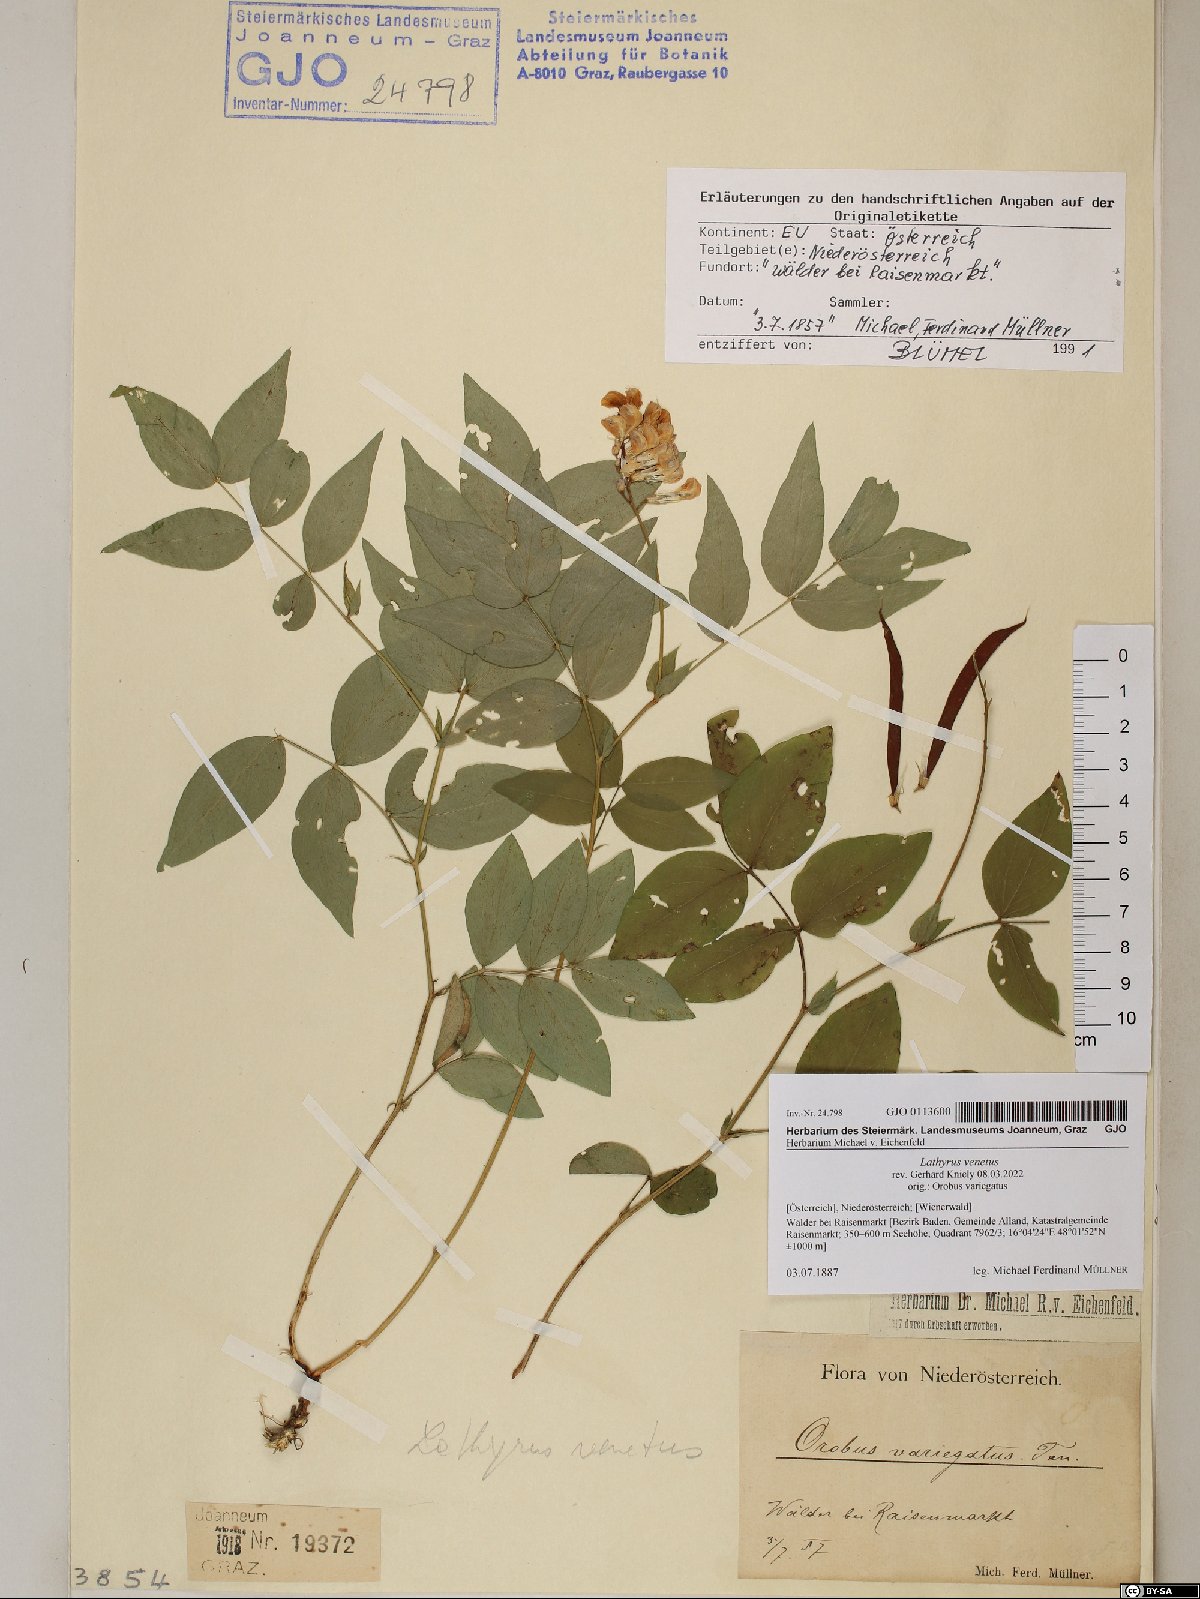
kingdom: Plantae
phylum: Tracheophyta
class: Magnoliopsida
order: Fabales
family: Fabaceae
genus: Lathyrus
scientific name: Lathyrus venetus
